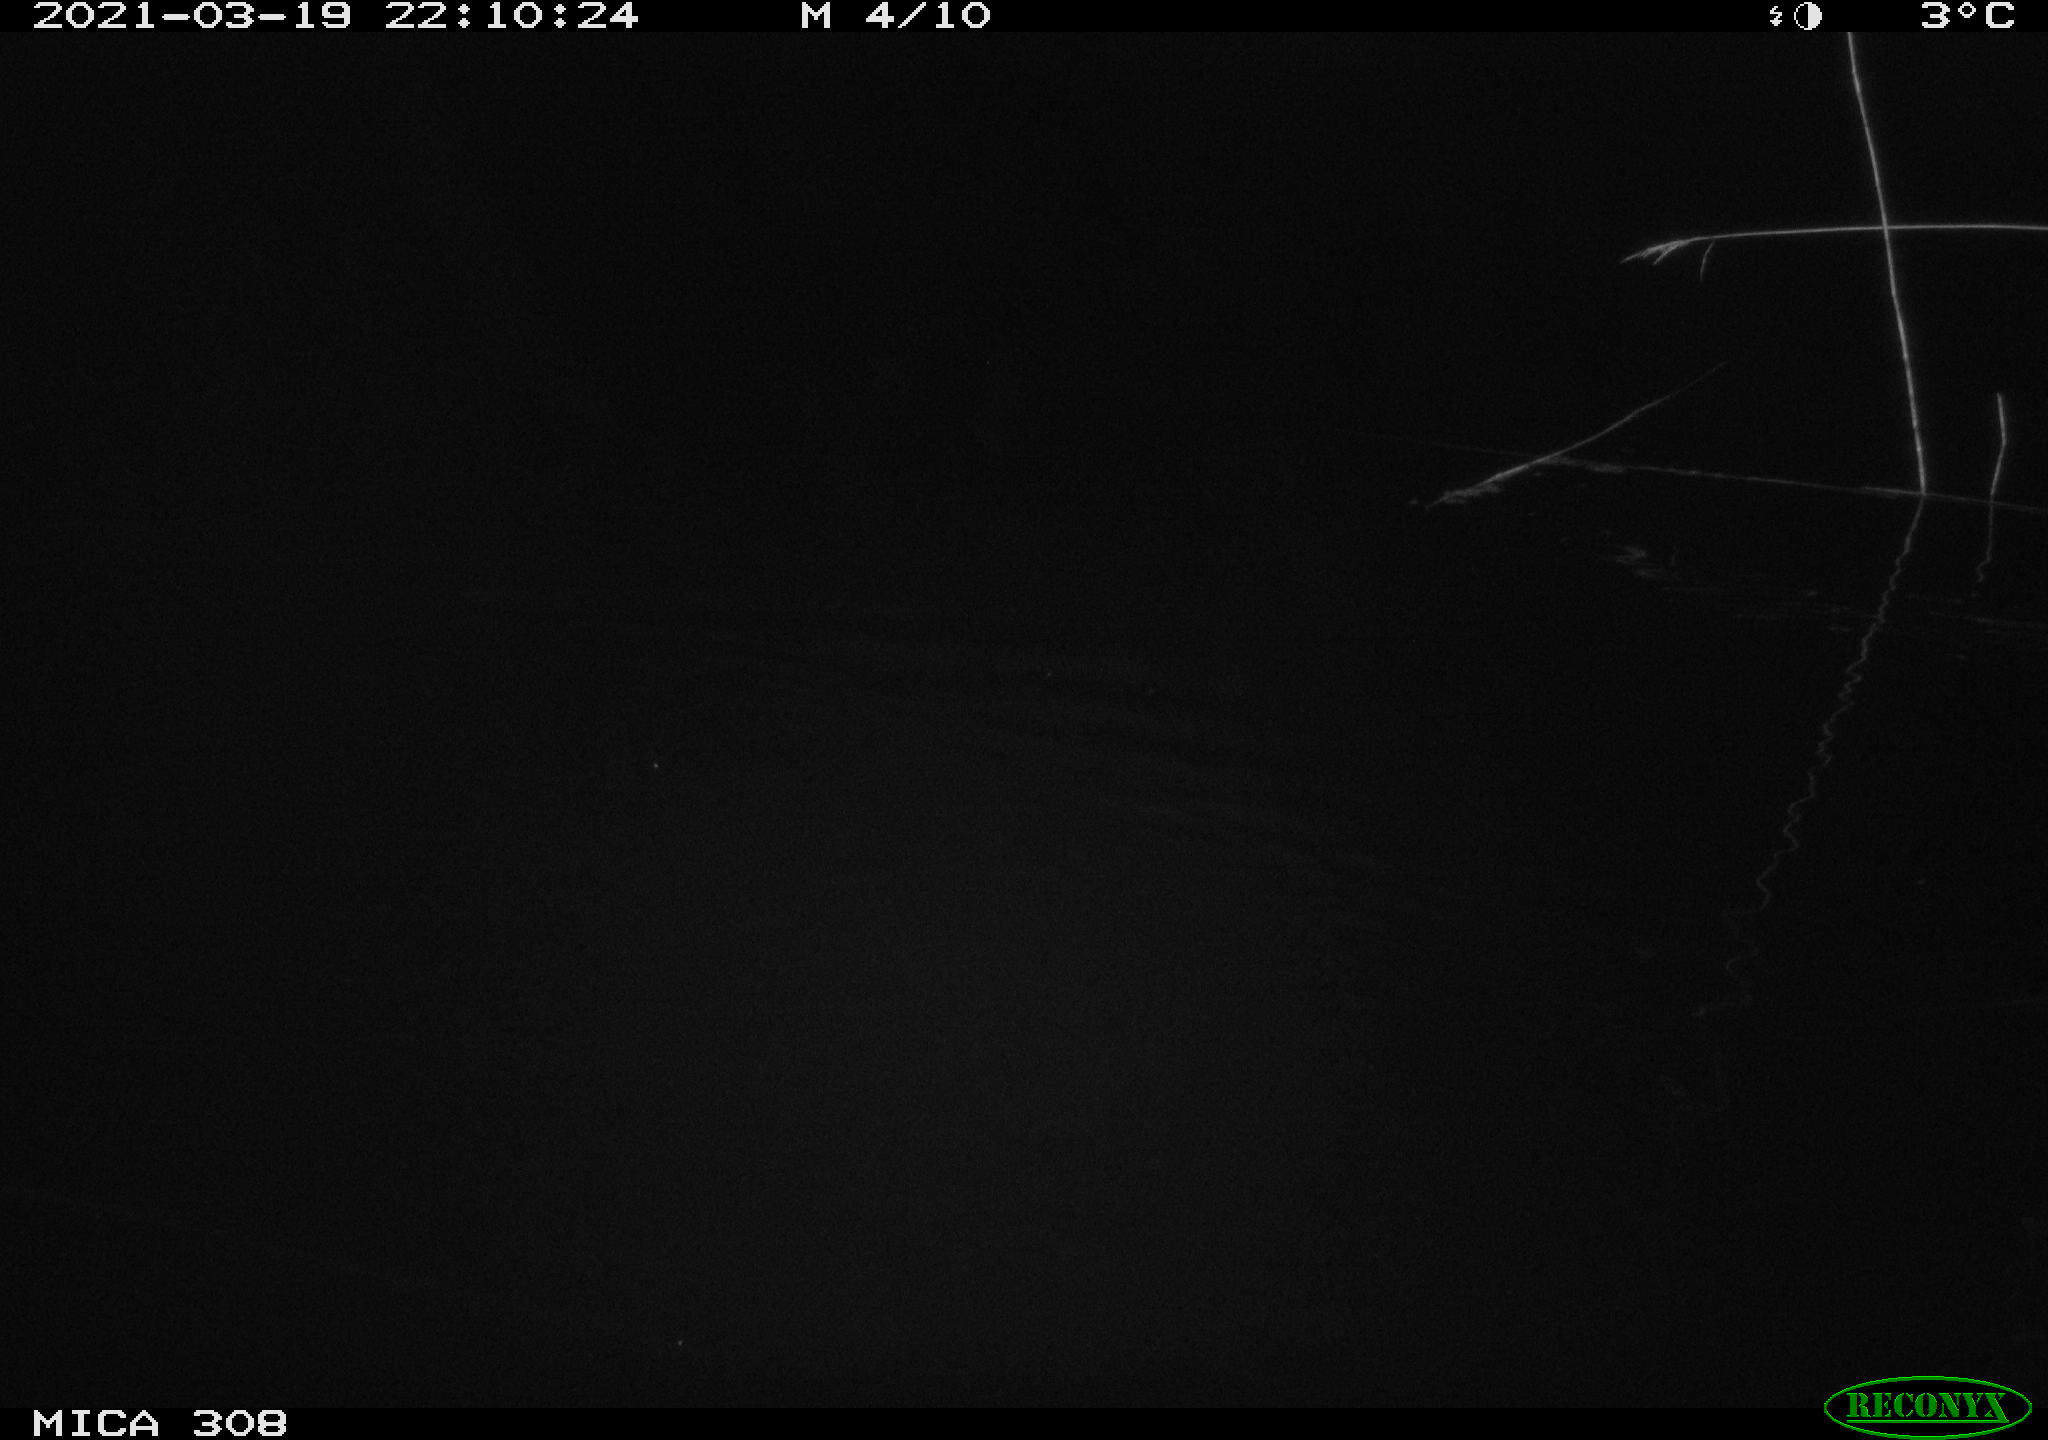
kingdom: Animalia
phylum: Chordata
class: Mammalia
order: Rodentia
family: Cricetidae
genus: Ondatra
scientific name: Ondatra zibethicus
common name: Muskrat
